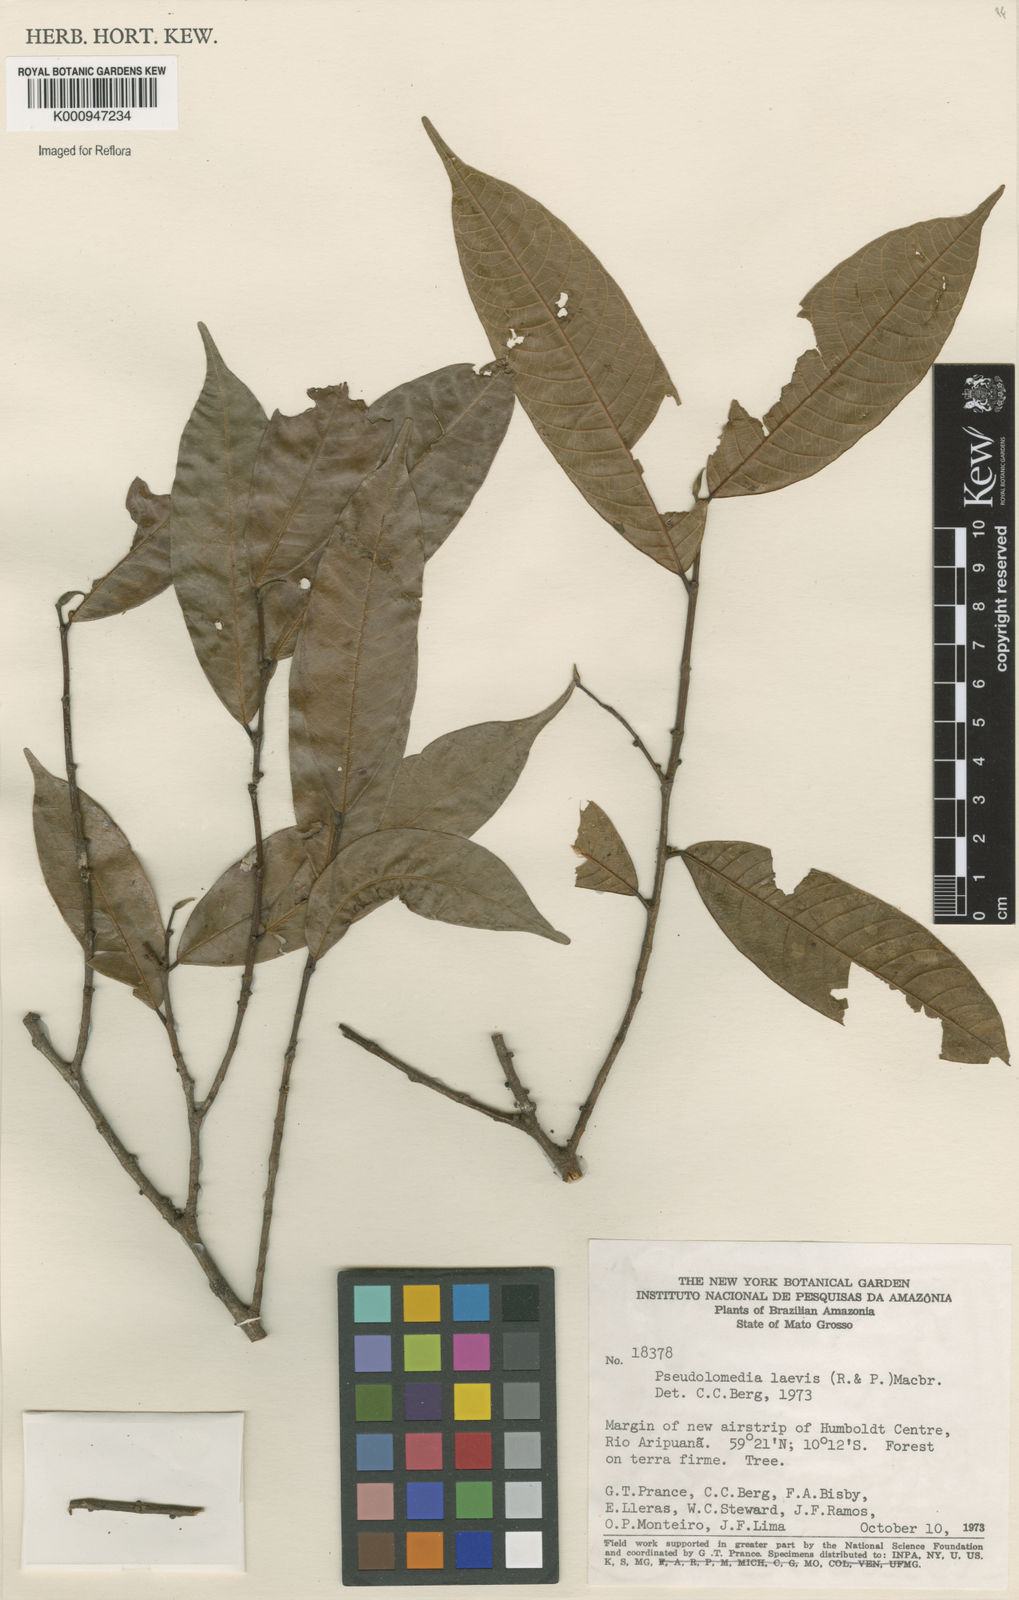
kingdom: Plantae
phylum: Tracheophyta
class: Magnoliopsida
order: Rosales
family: Moraceae
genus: Pseudolmedia
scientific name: Pseudolmedia laevis
